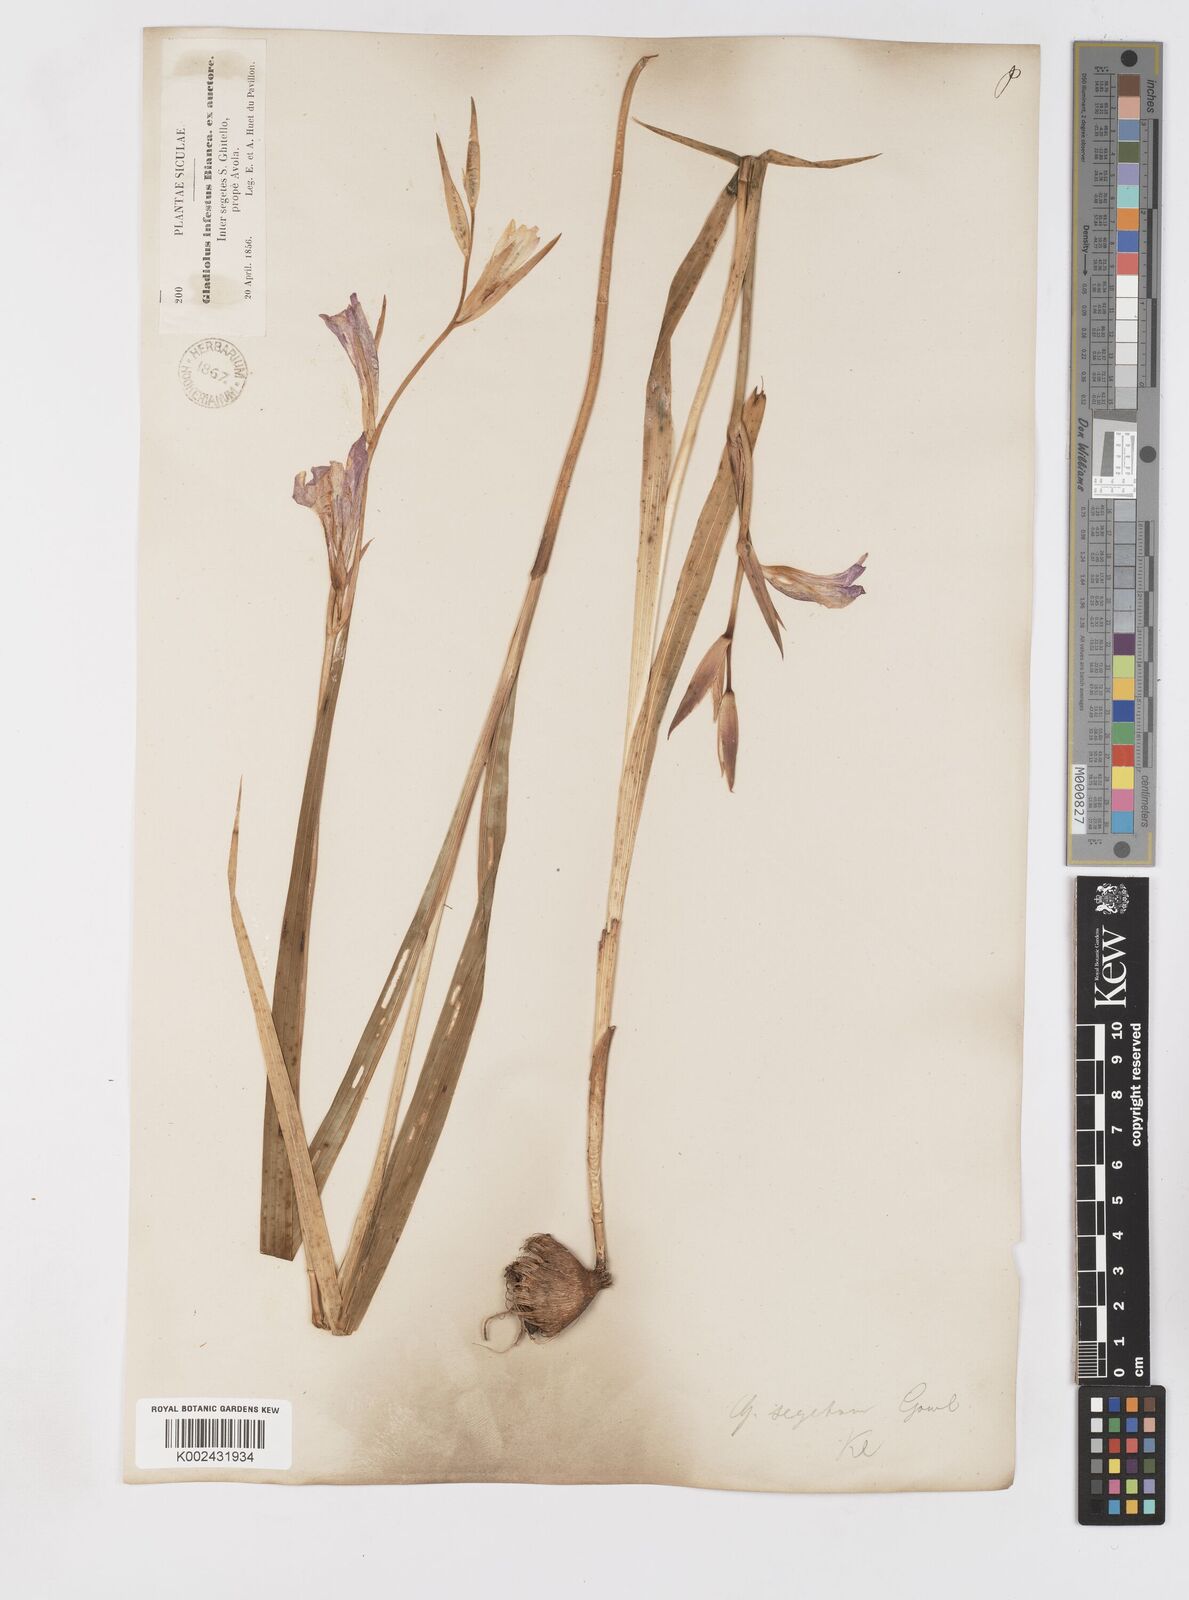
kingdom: Plantae
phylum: Tracheophyta
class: Liliopsida
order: Asparagales
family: Iridaceae
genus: Gladiolus
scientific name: Gladiolus italicus
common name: Field gladiolus
